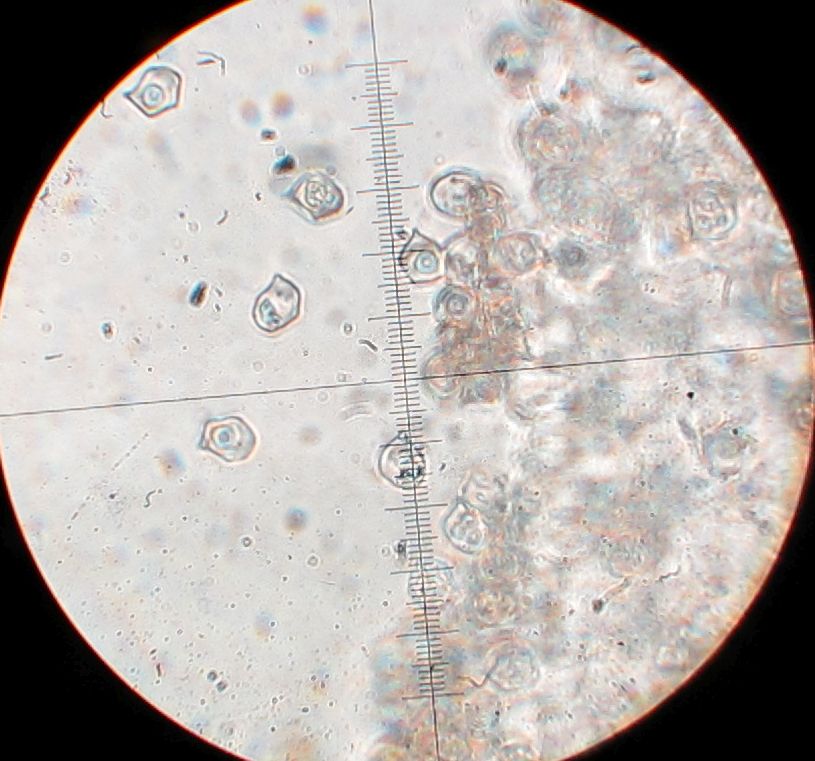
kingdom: Fungi
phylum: Basidiomycota
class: Agaricomycetes
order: Agaricales
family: Entolomataceae
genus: Entoloma
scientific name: Entoloma
